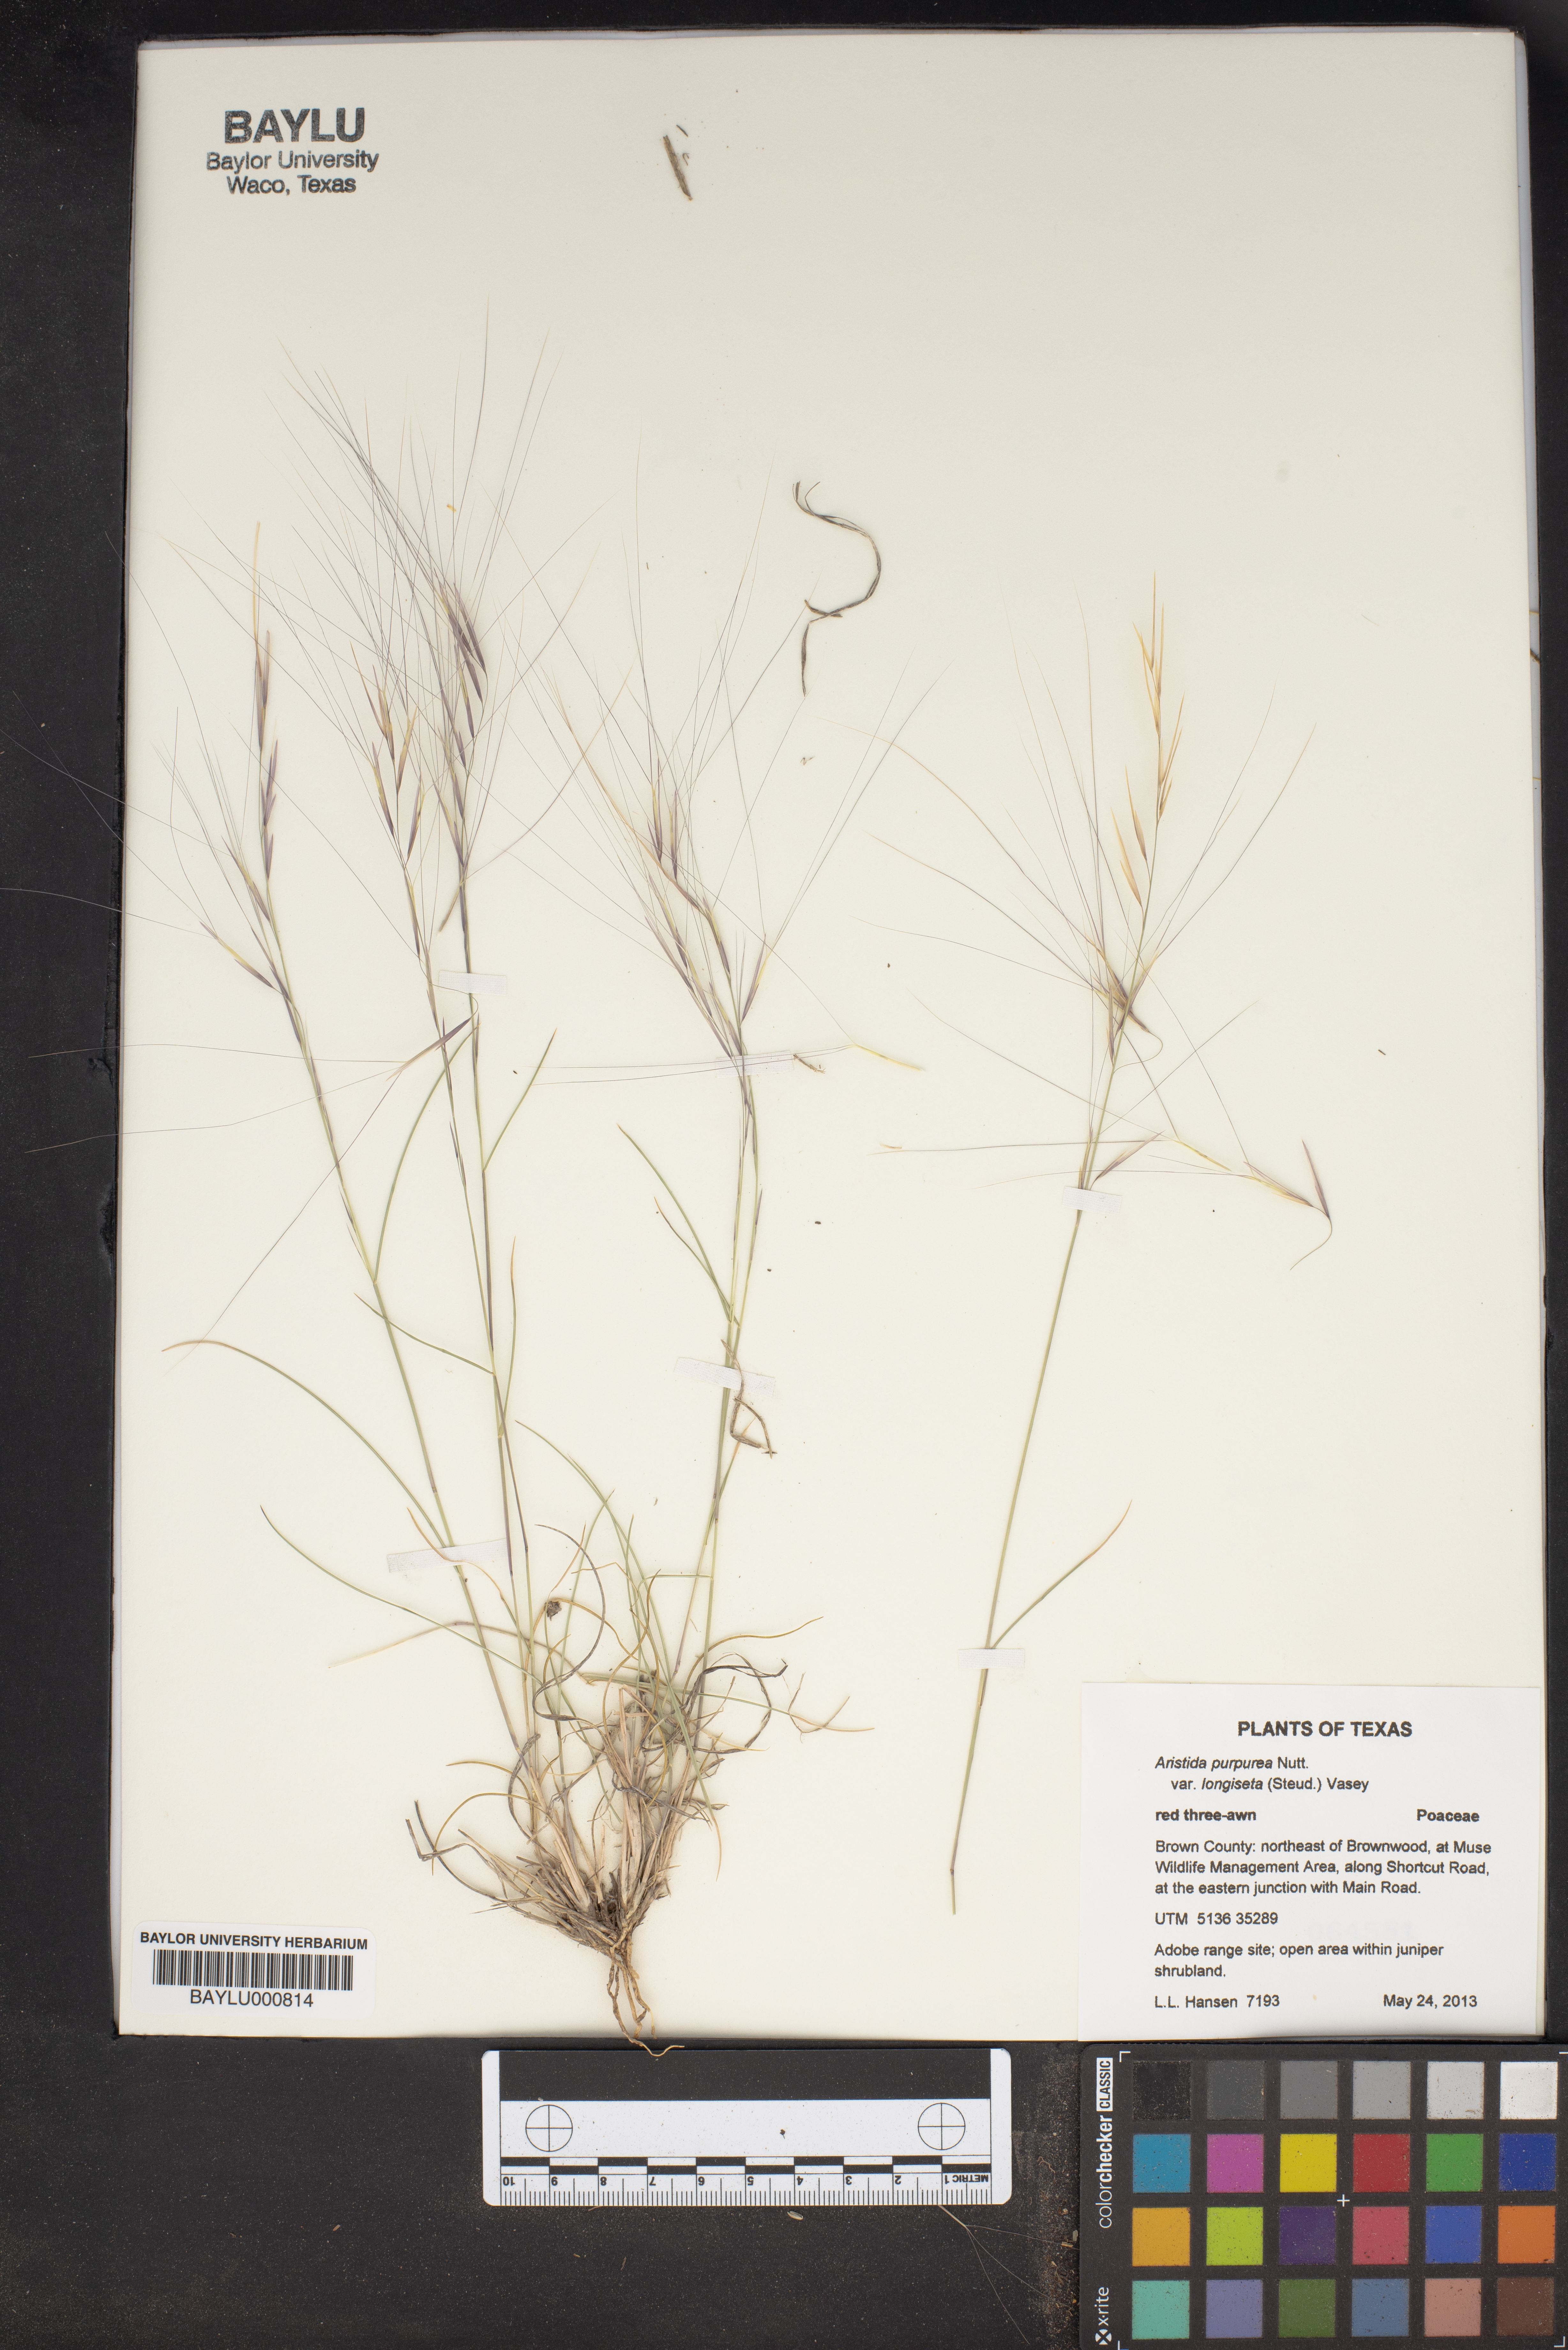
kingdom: Plantae
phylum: Tracheophyta
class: Liliopsida
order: Poales
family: Poaceae
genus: Aristida
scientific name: Aristida longiseta
